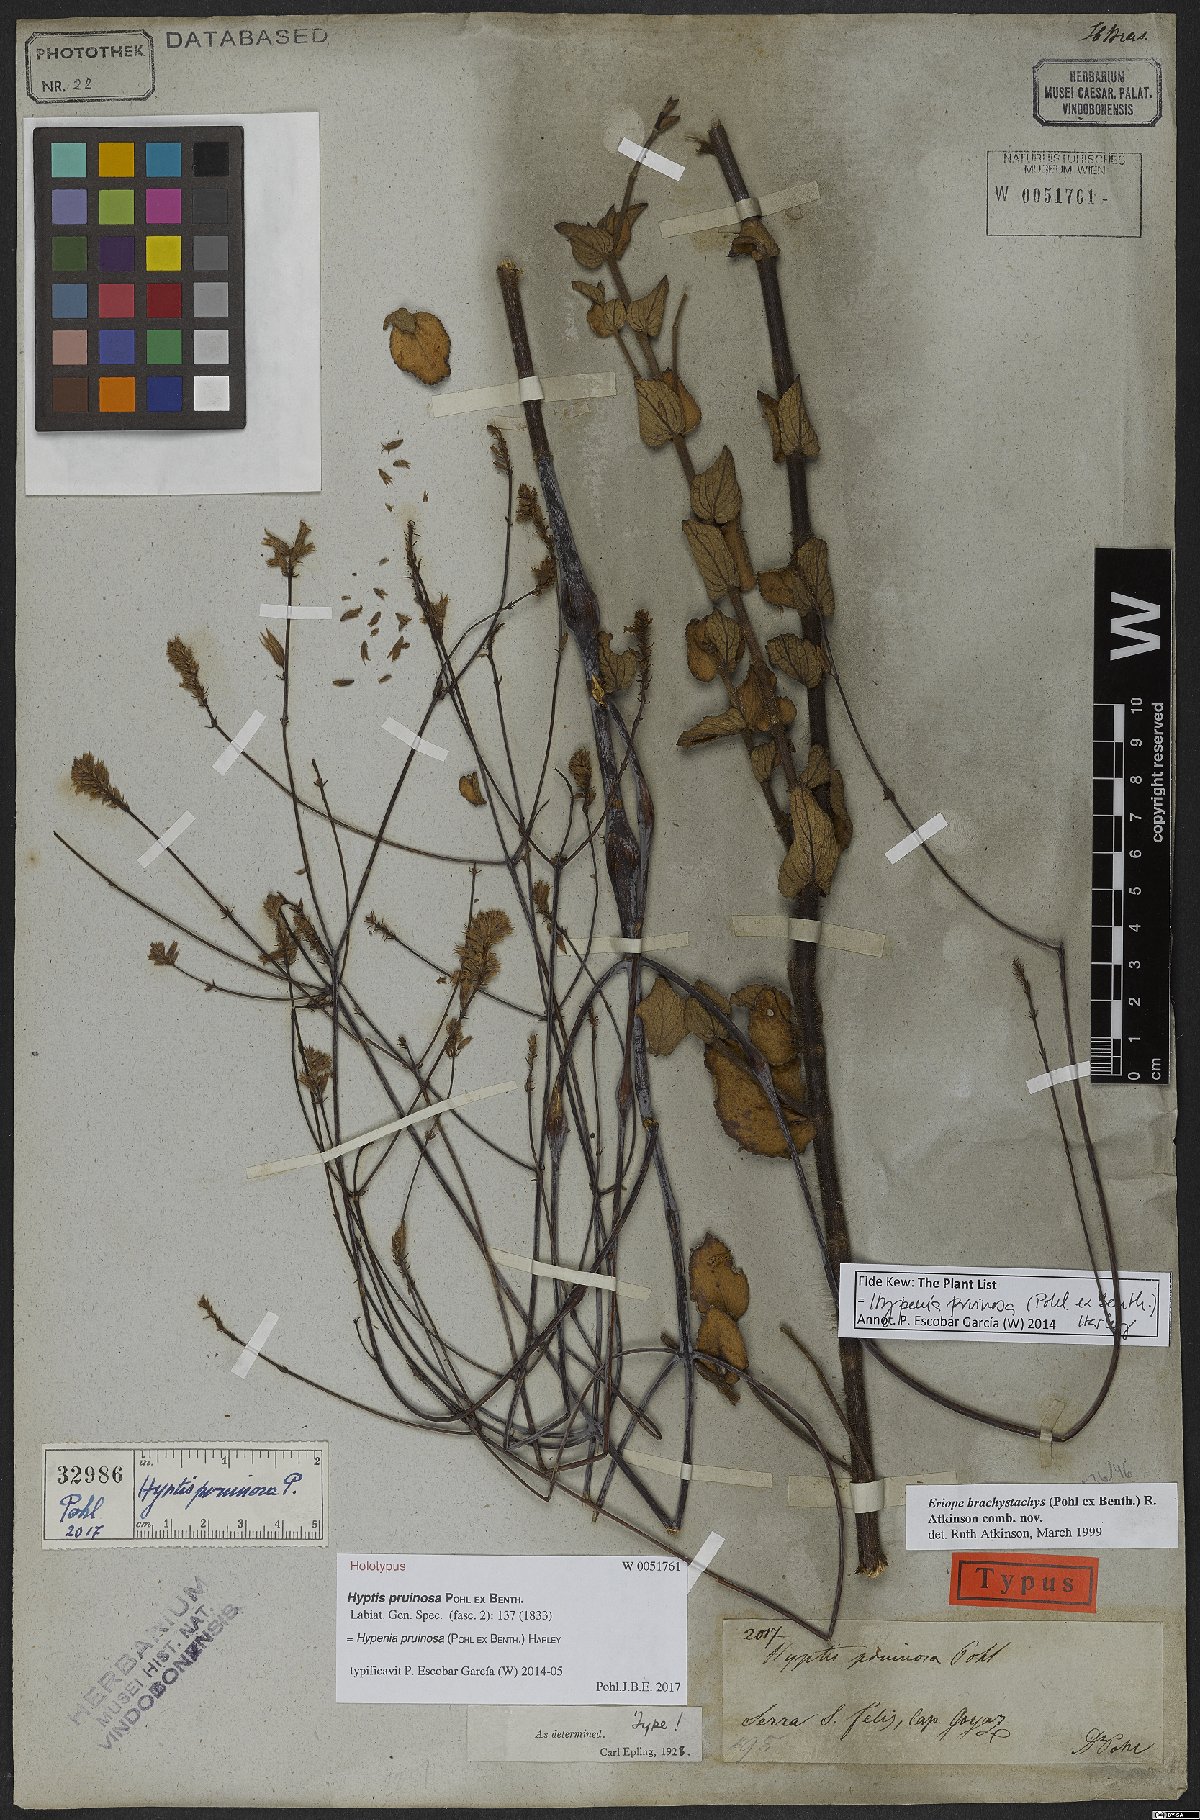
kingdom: Plantae
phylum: Tracheophyta
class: Magnoliopsida
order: Lamiales
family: Lamiaceae
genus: Hypenia
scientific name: Hypenia pruinosa
